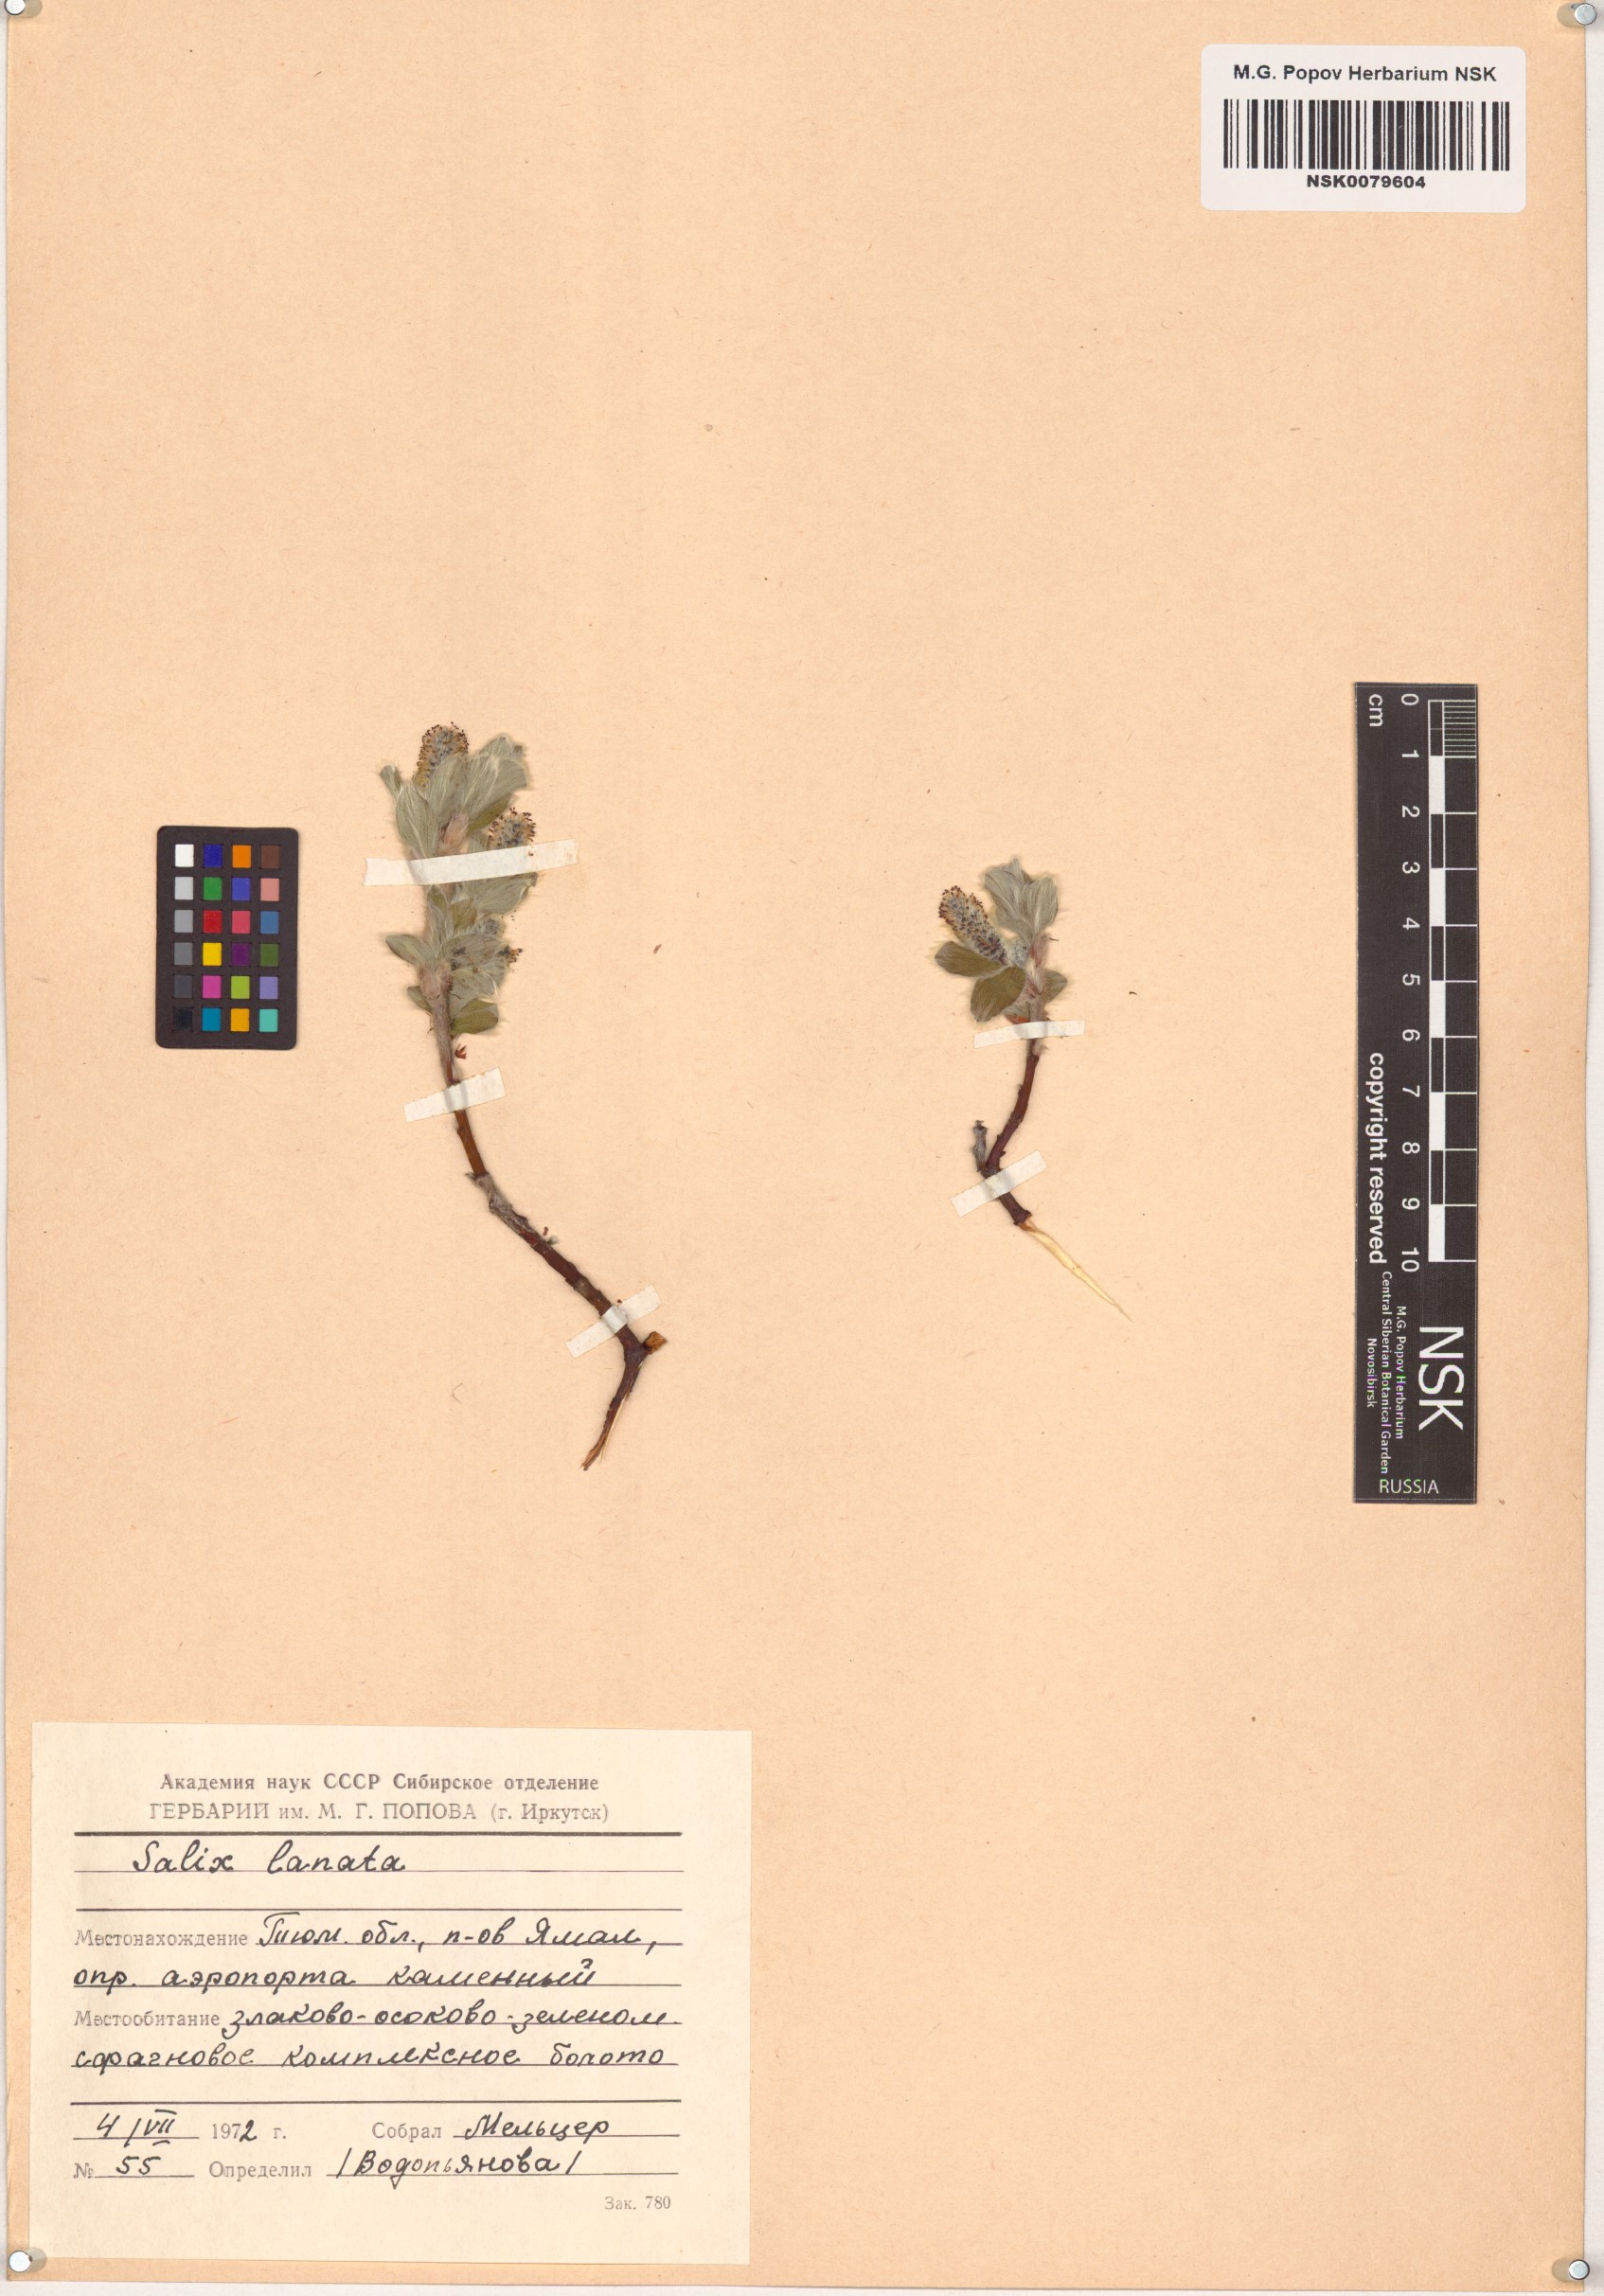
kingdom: Plantae
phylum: Tracheophyta
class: Magnoliopsida
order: Malpighiales
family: Salicaceae
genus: Salix
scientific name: Salix lanata
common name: Woolly willow
